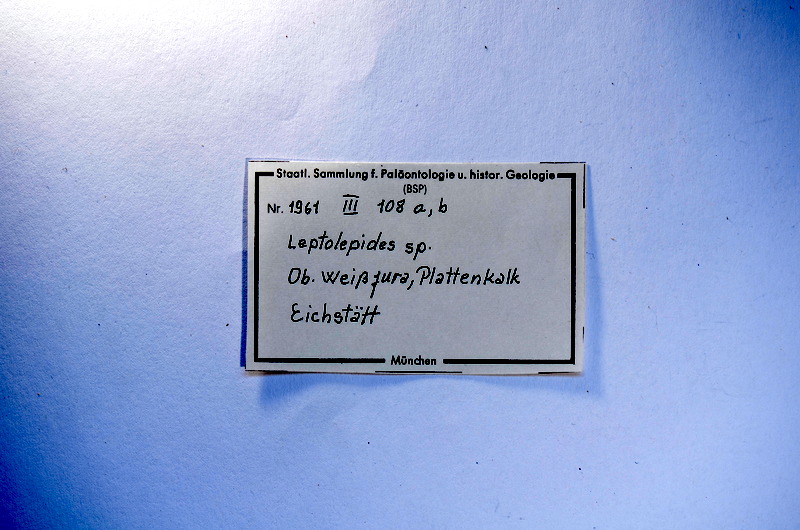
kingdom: Animalia
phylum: Chordata
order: Salmoniformes
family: Orthogonikleithridae
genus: Leptolepides
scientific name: Leptolepides
